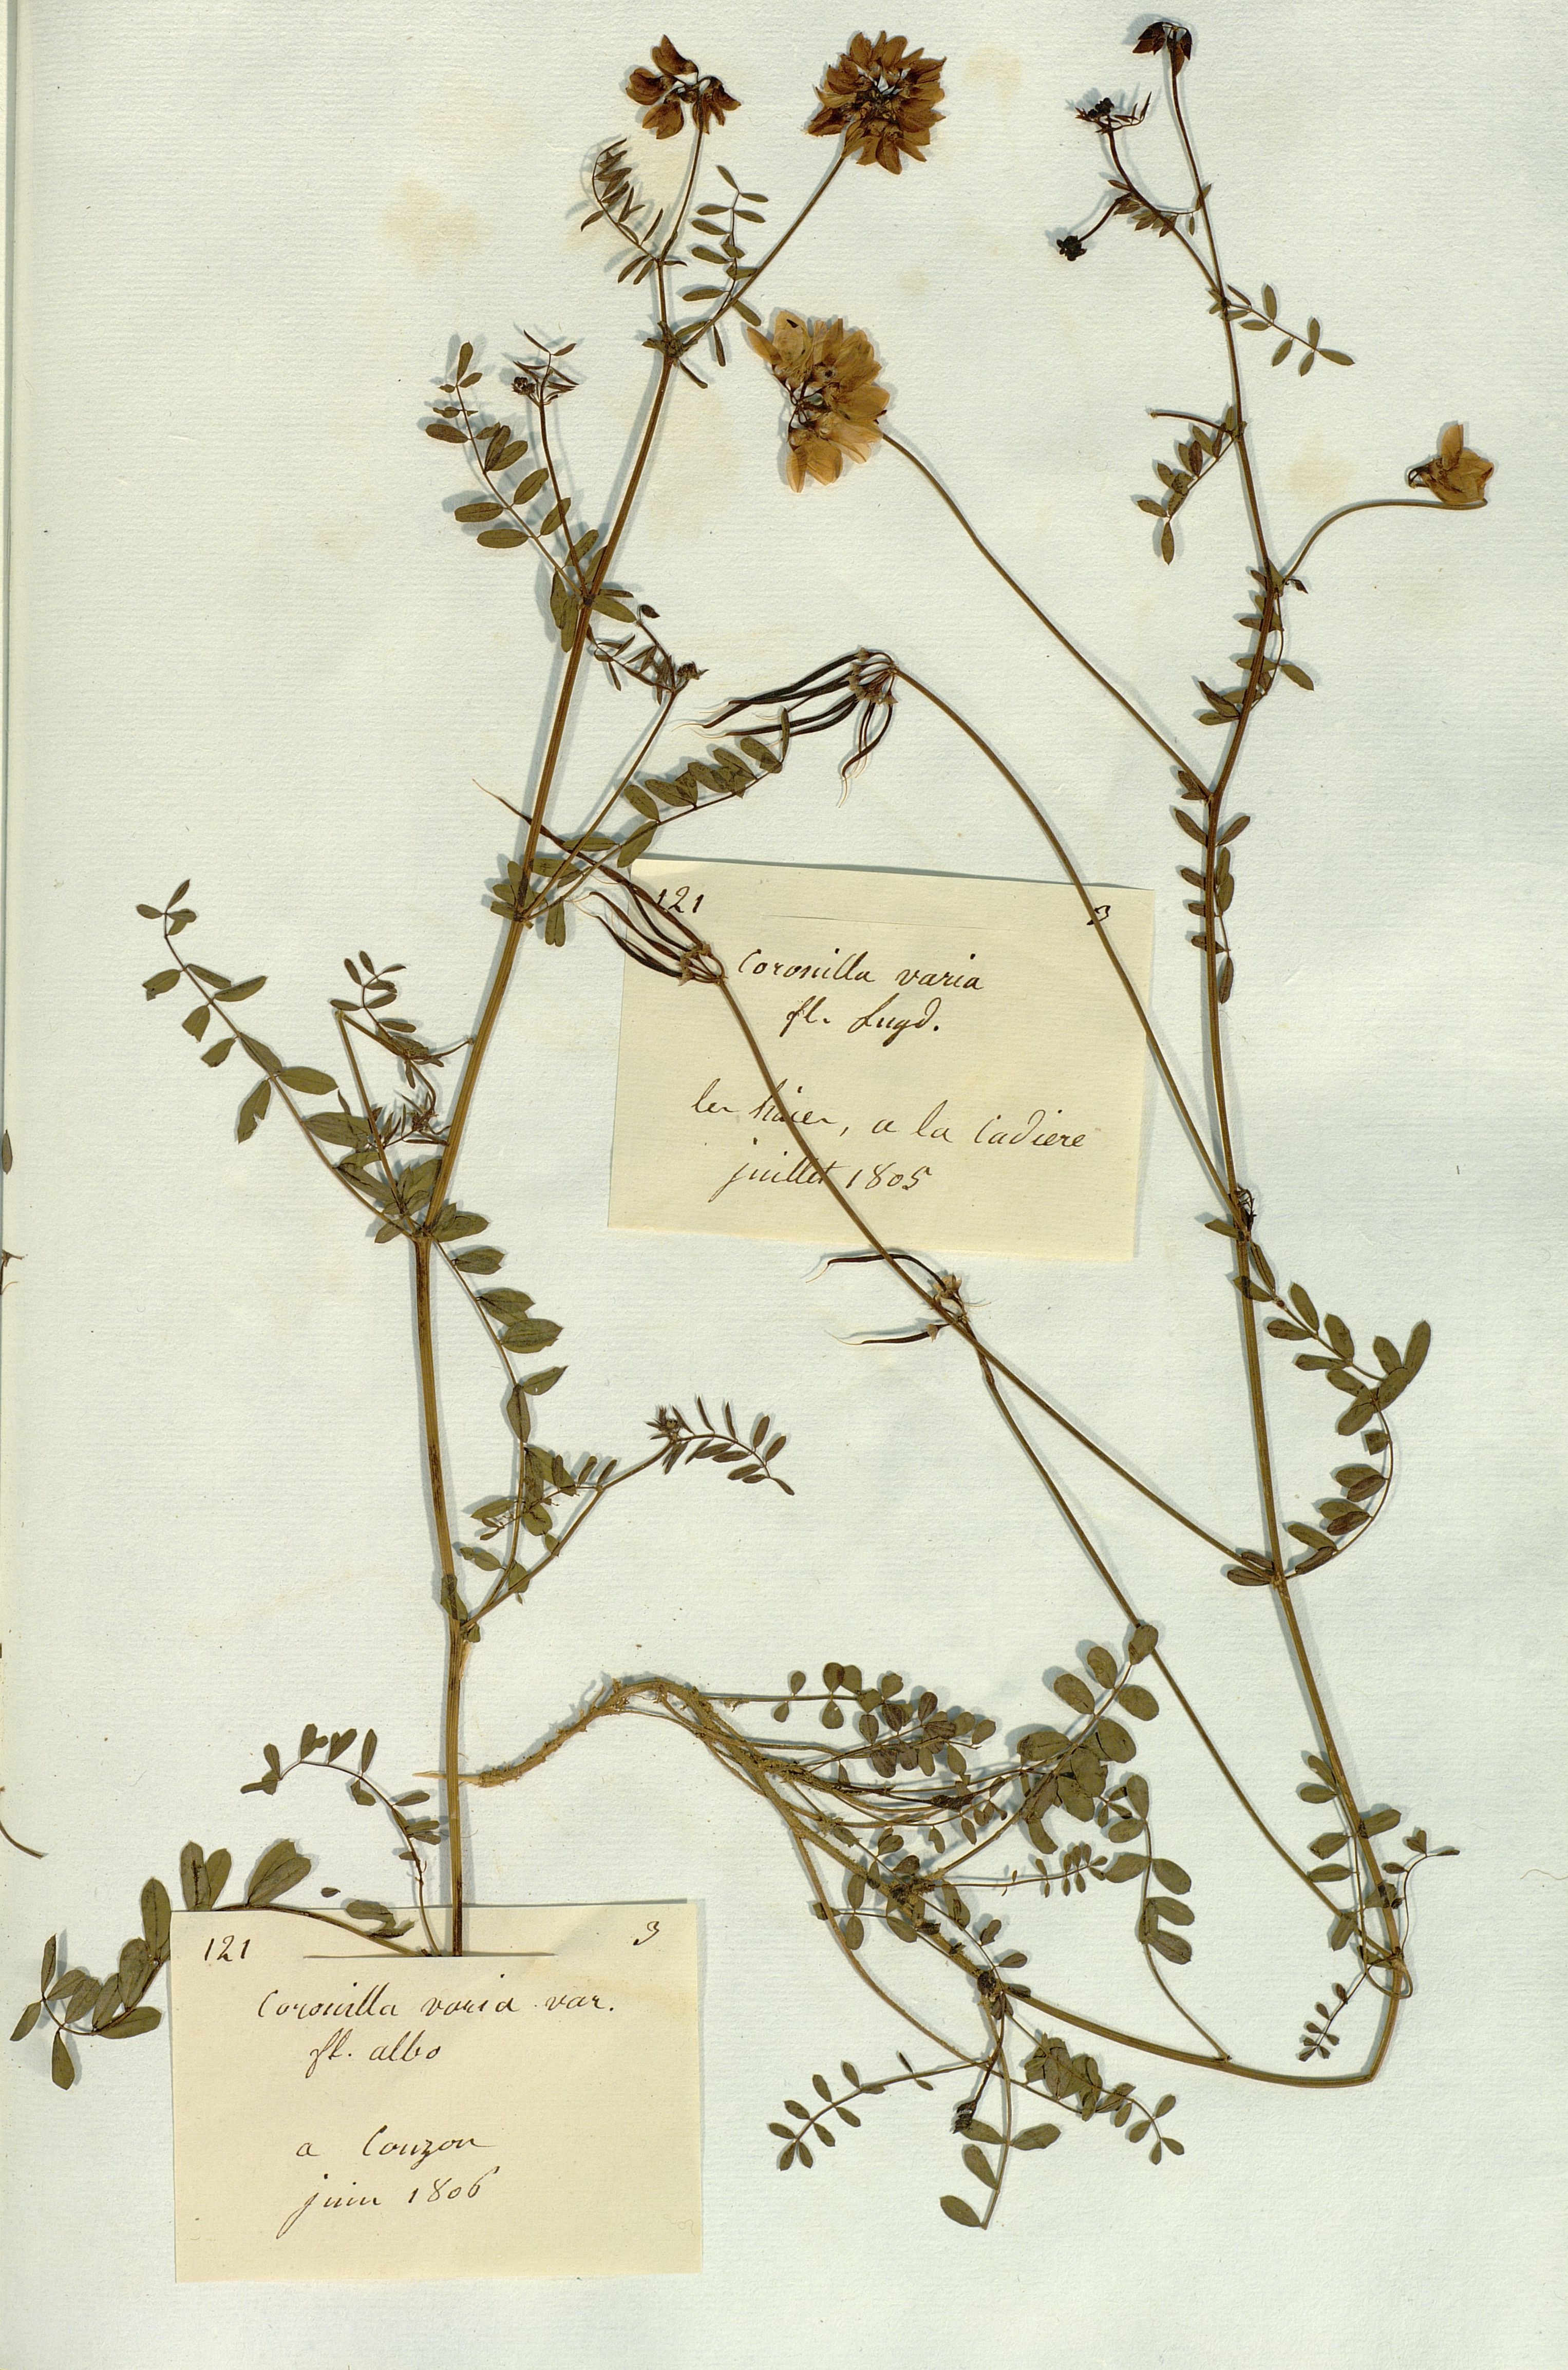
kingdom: Plantae
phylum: Tracheophyta
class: Magnoliopsida
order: Fabales
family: Fabaceae
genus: Coronilla
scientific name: Coronilla varia
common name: Crownvetch
